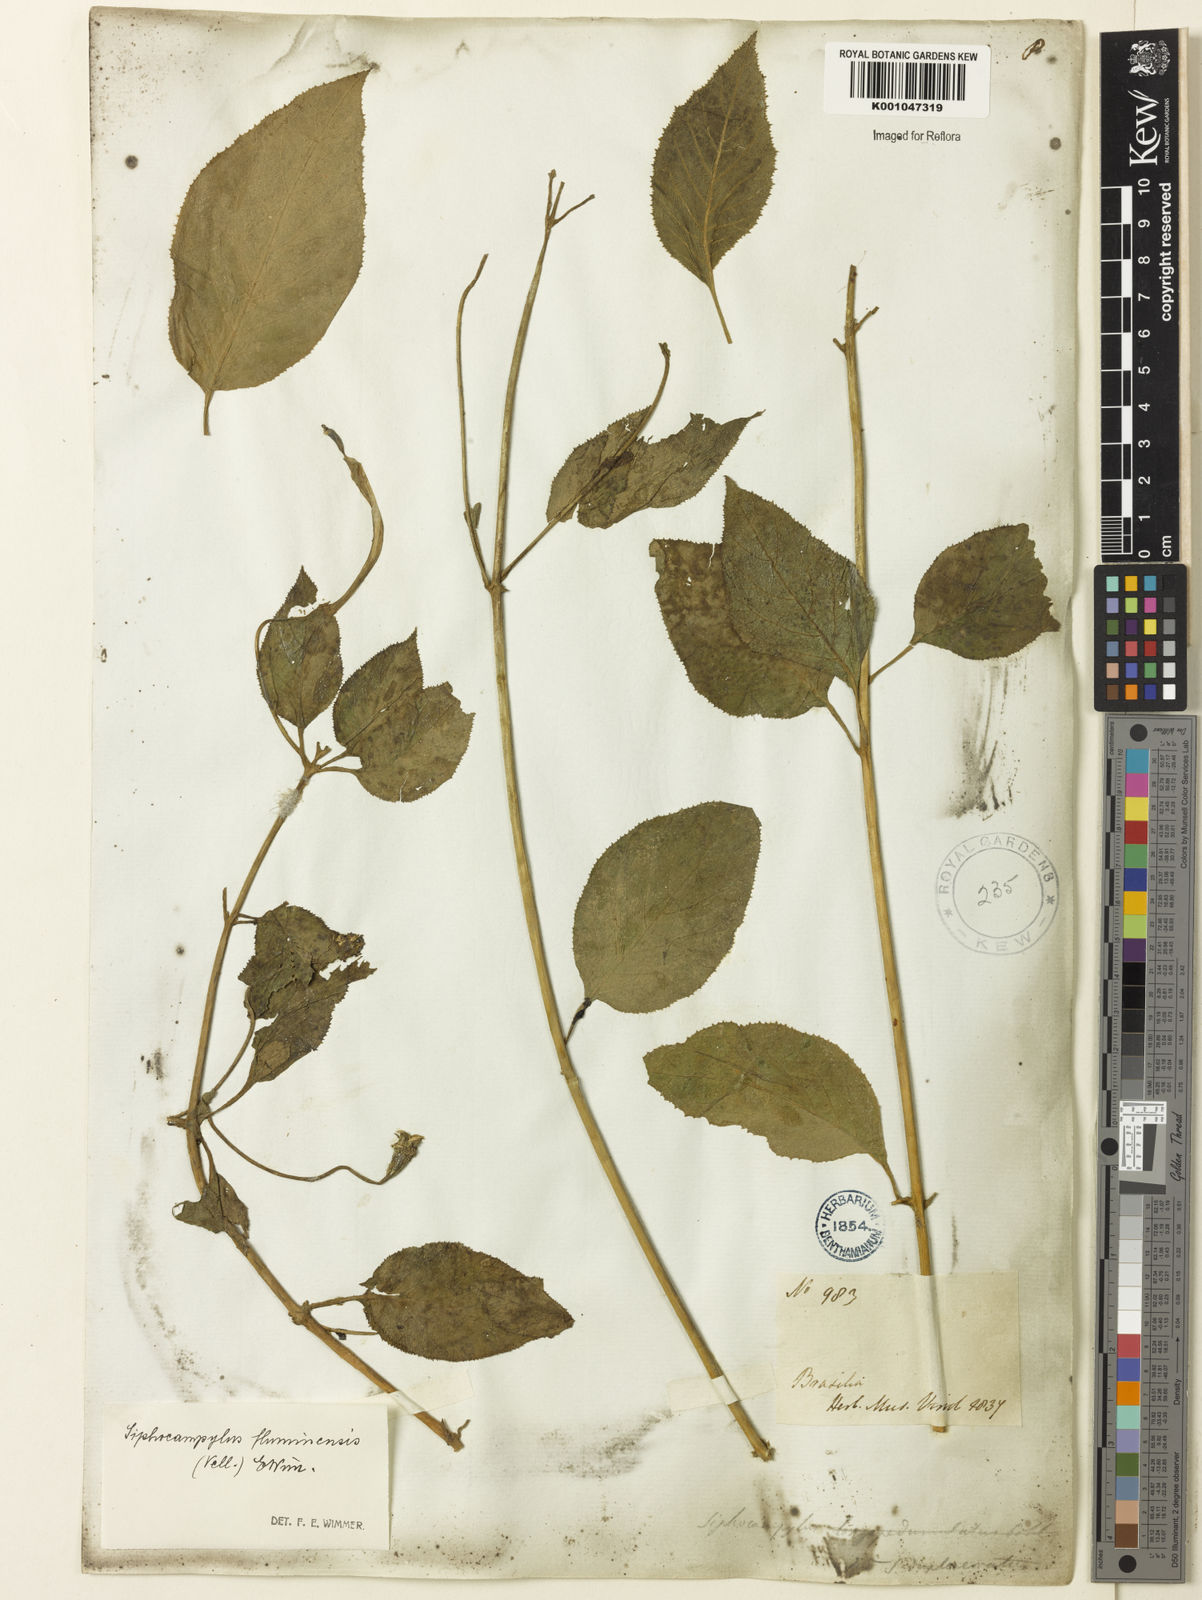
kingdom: Plantae
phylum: Tracheophyta
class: Magnoliopsida
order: Asterales
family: Campanulaceae
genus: Siphocampylus
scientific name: Siphocampylus fluminensis
